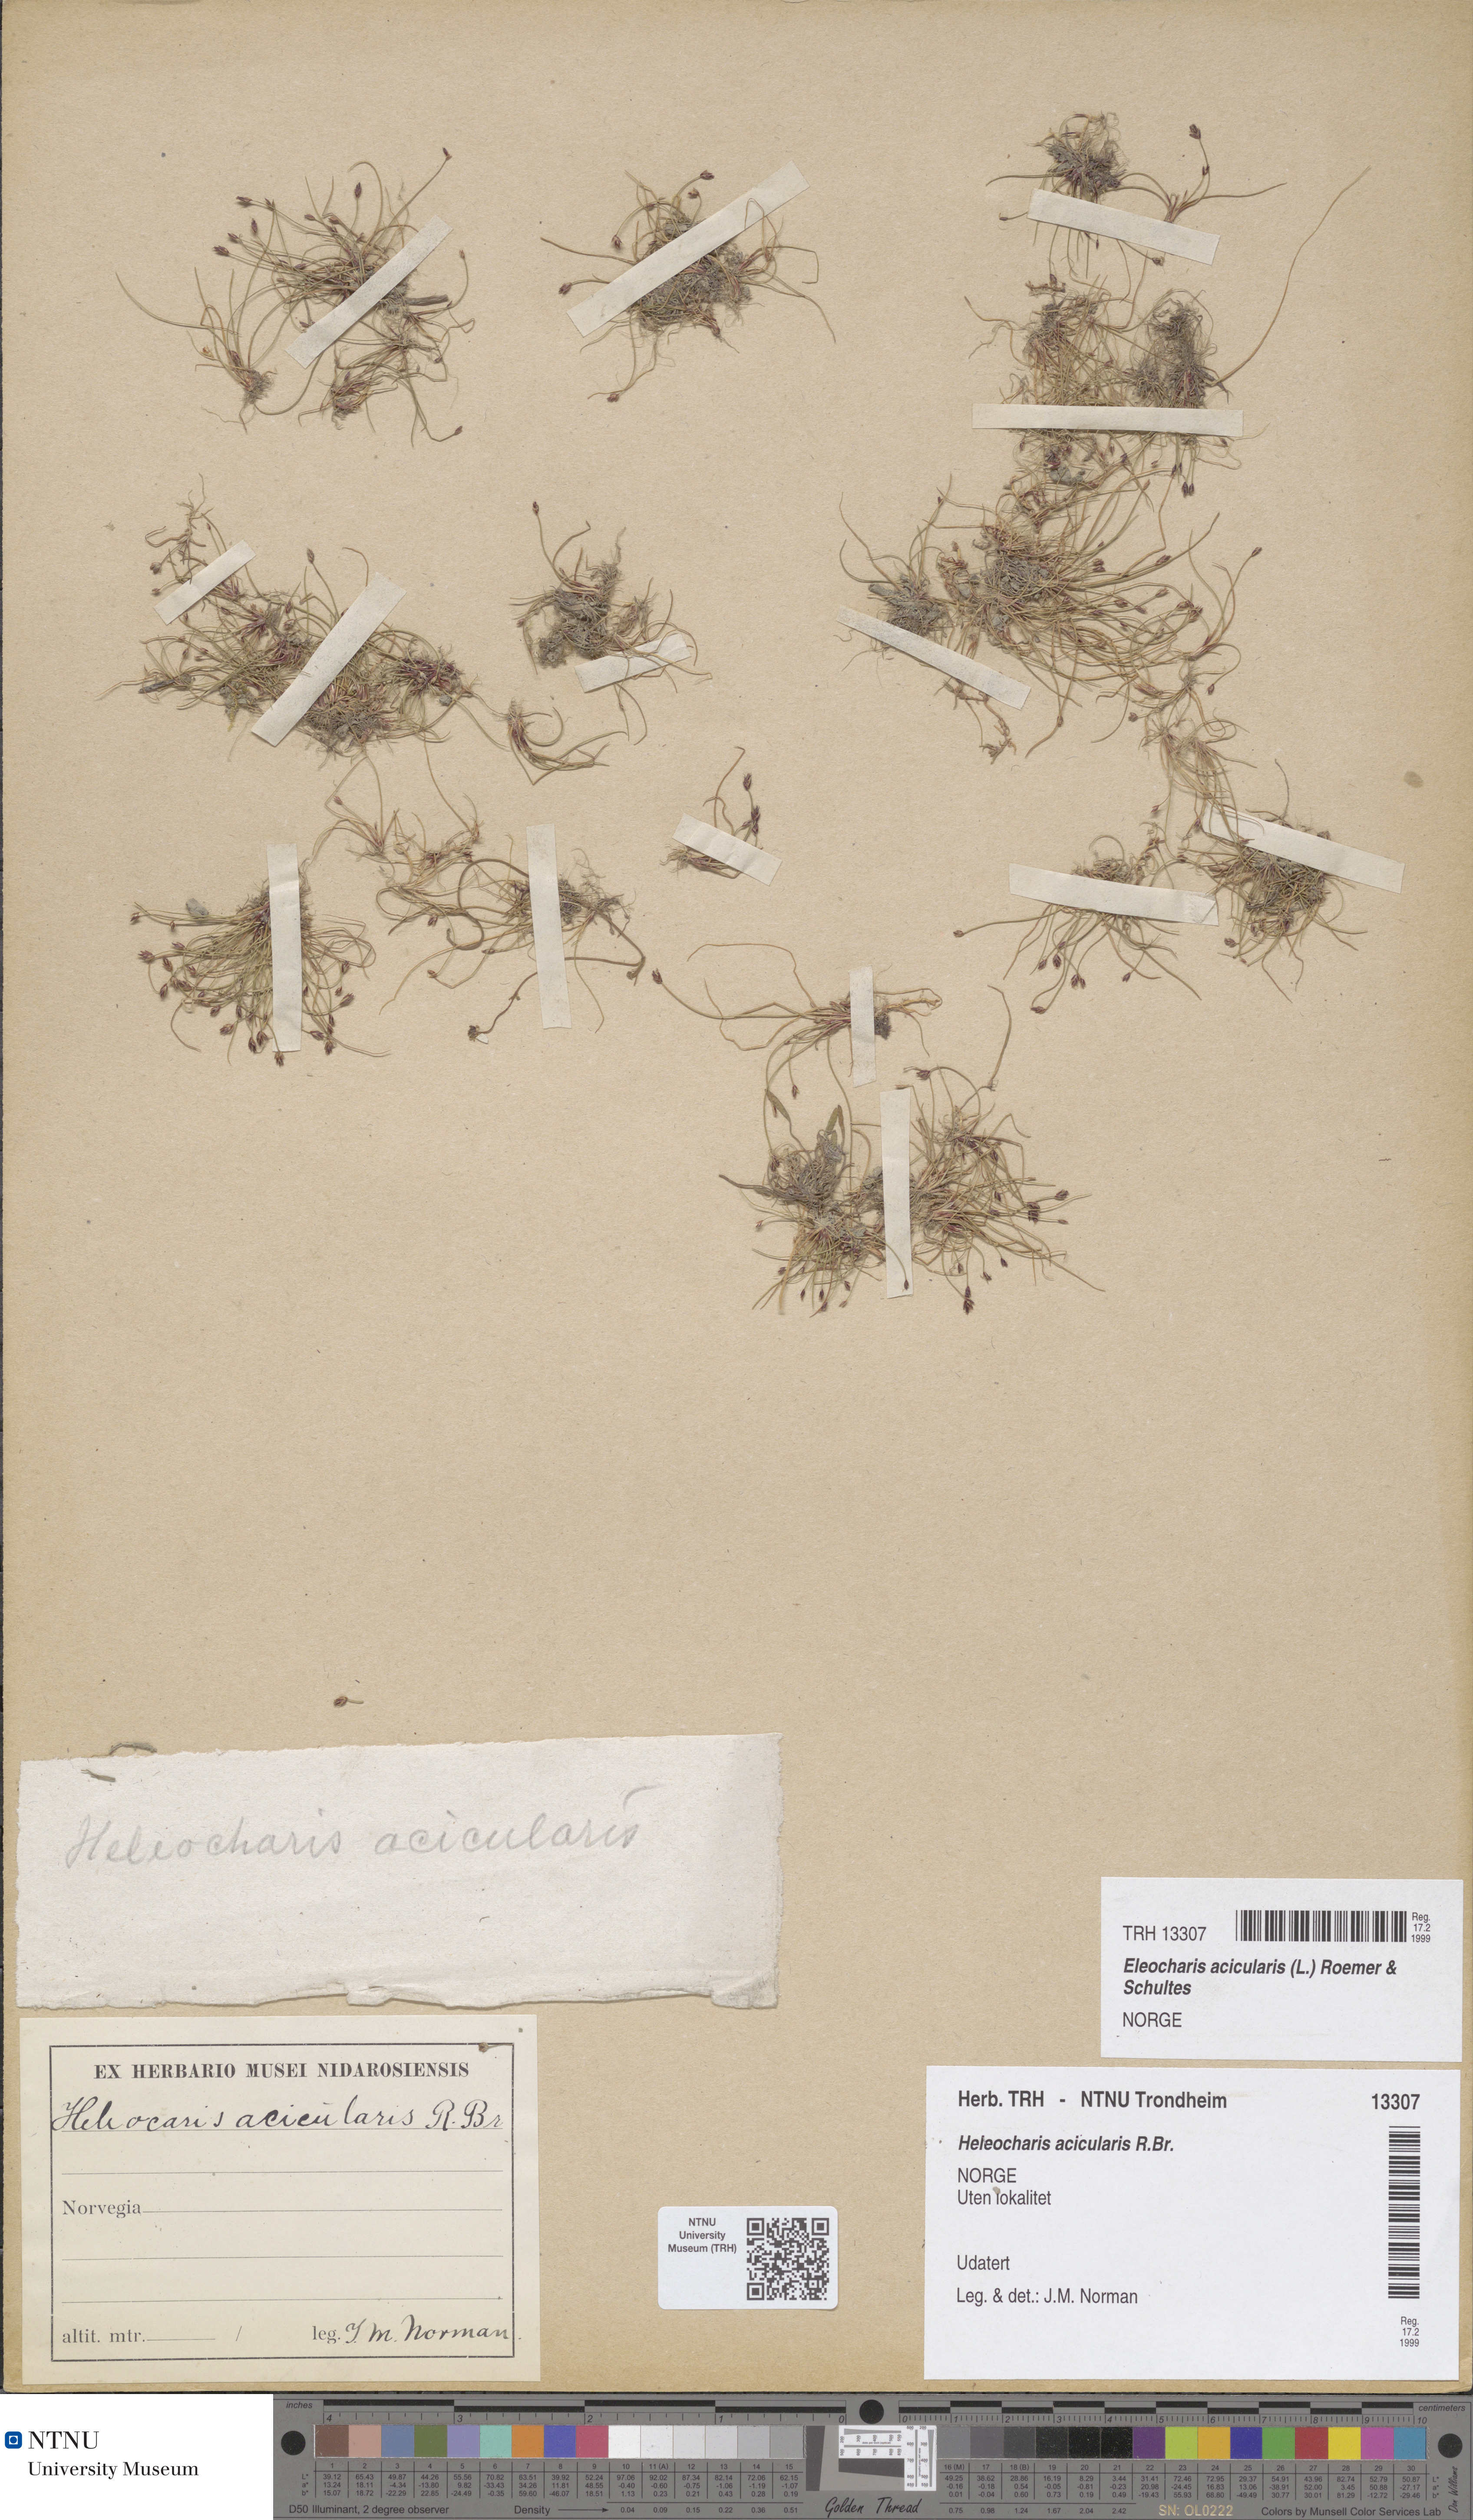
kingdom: Plantae
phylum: Tracheophyta
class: Liliopsida
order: Poales
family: Cyperaceae
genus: Eleocharis
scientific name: Eleocharis acicularis
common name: Needle spike-rush
